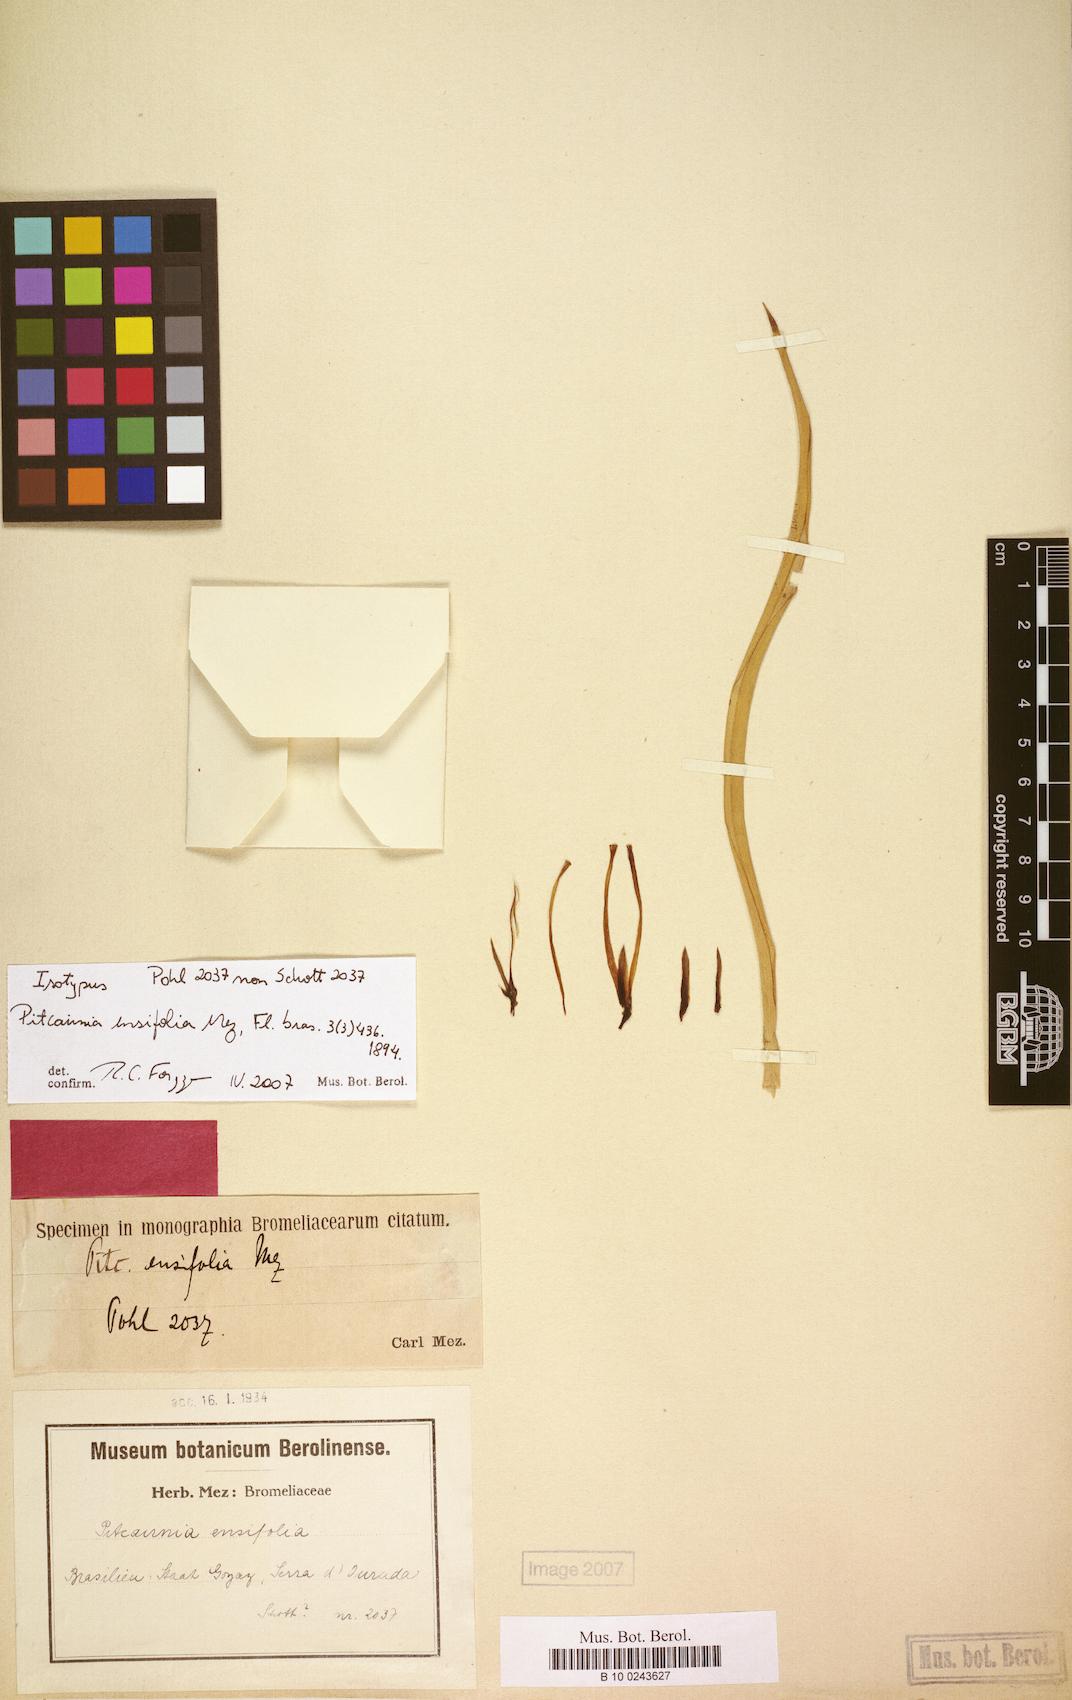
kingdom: Plantae
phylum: Tracheophyta
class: Liliopsida
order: Poales
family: Bromeliaceae
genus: Pitcairnia
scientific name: Pitcairnia ensifolia
